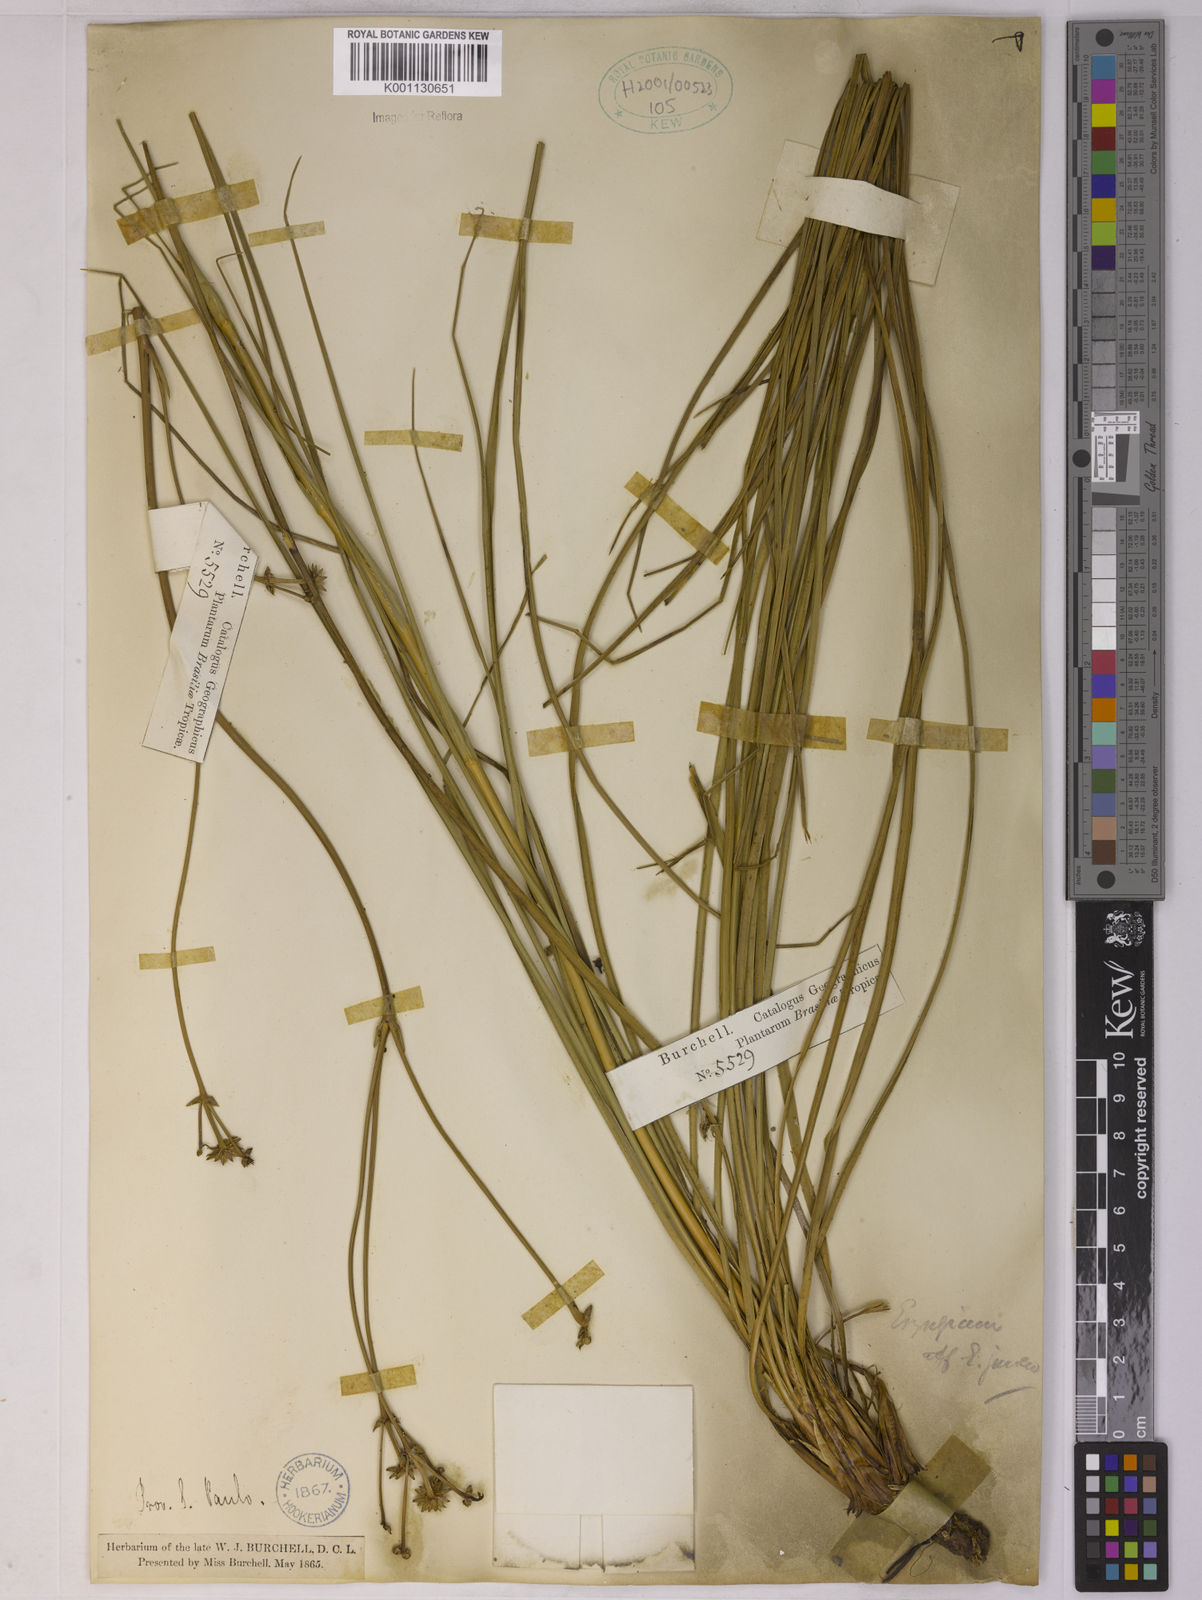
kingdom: Plantae
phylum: Tracheophyta
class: Magnoliopsida
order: Apiales
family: Apiaceae
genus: Eryngium
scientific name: Eryngium junceum
